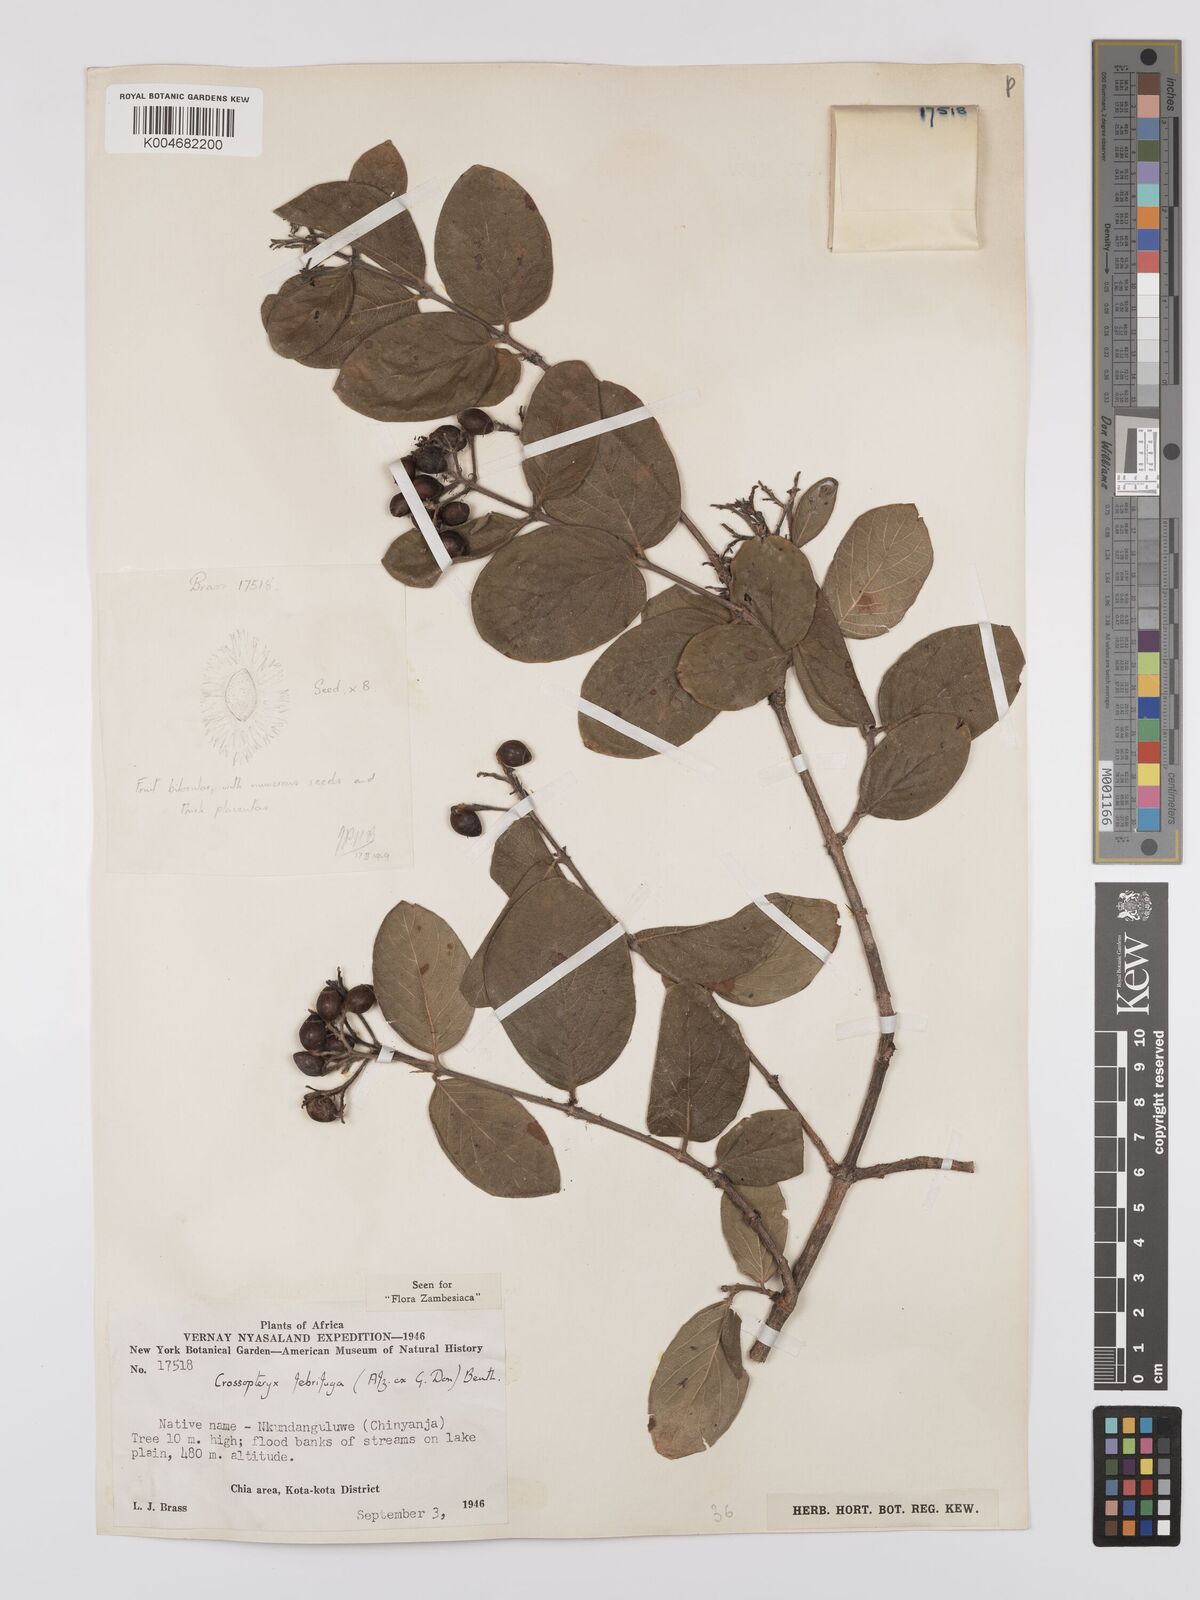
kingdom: Plantae
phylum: Tracheophyta
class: Magnoliopsida
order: Gentianales
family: Rubiaceae
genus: Crossopteryx
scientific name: Crossopteryx febrifuga
